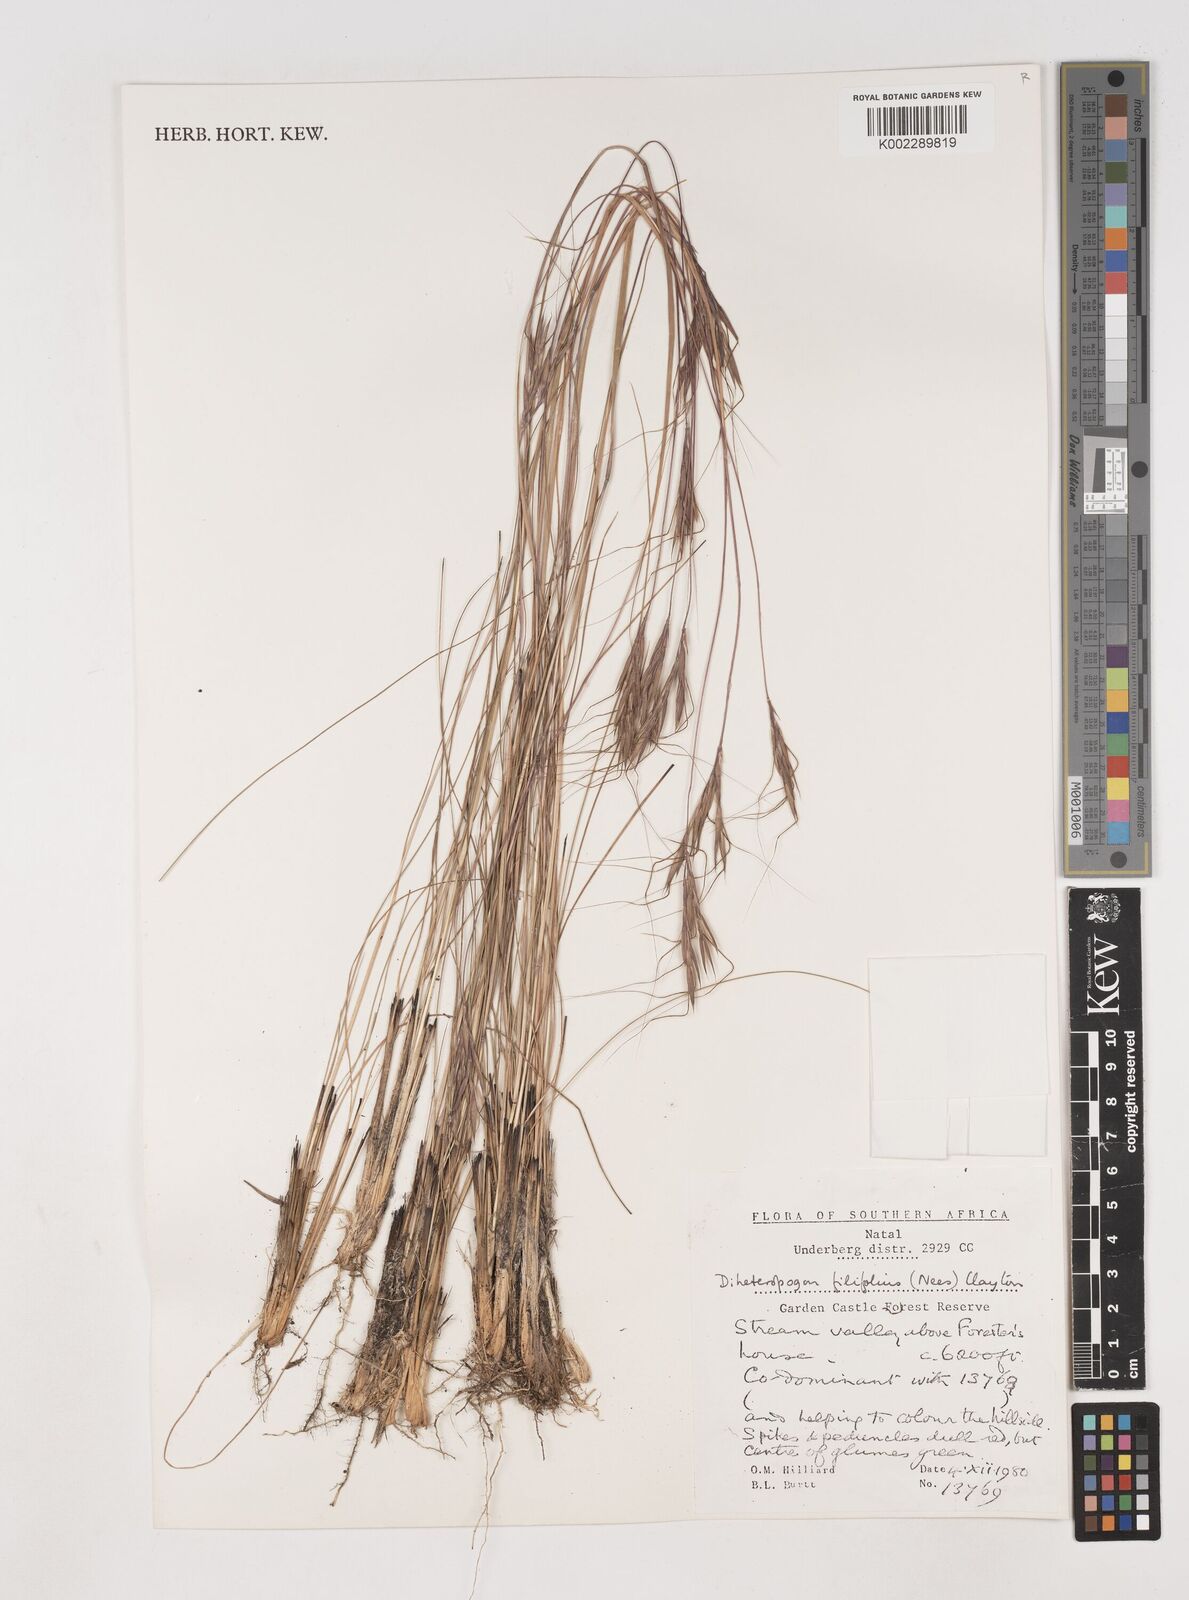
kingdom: Plantae
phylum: Tracheophyta
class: Liliopsida
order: Poales
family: Poaceae
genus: Diheteropogon
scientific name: Diheteropogon filifolius
